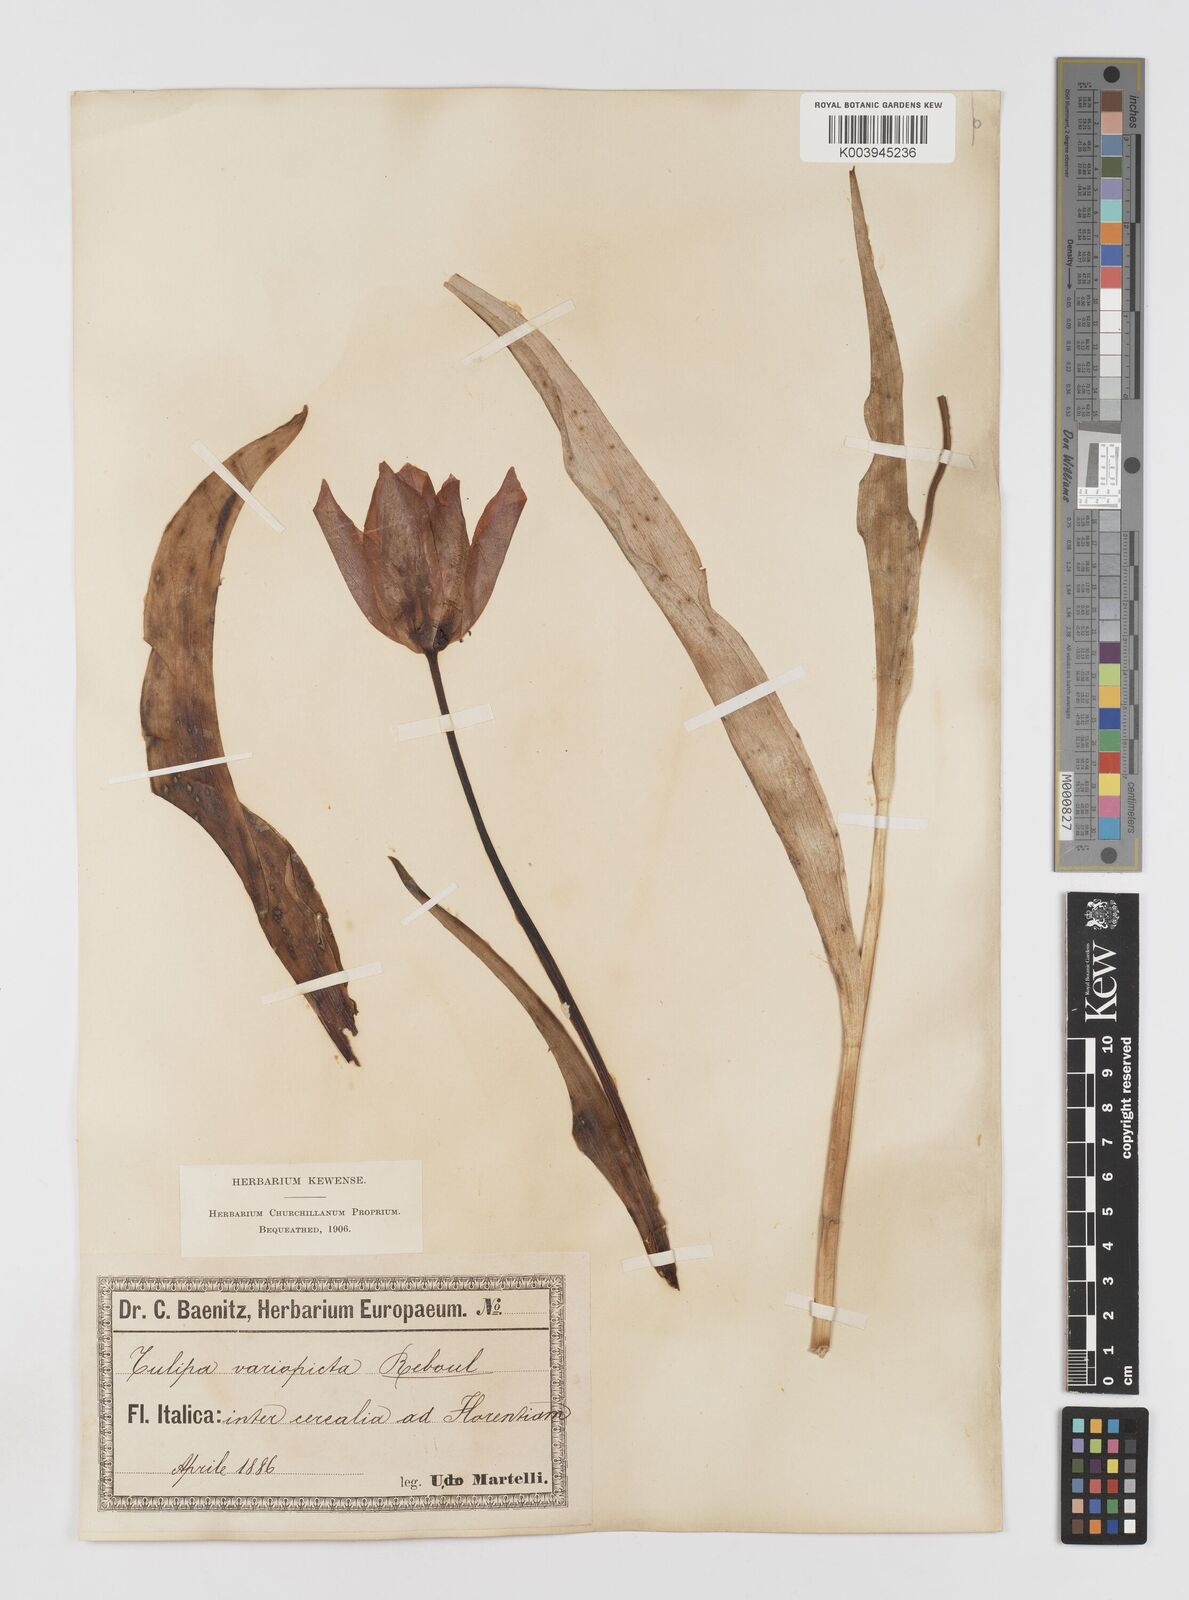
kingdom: Plantae
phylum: Tracheophyta
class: Liliopsida
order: Liliales
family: Liliaceae
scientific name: Liliaceae
